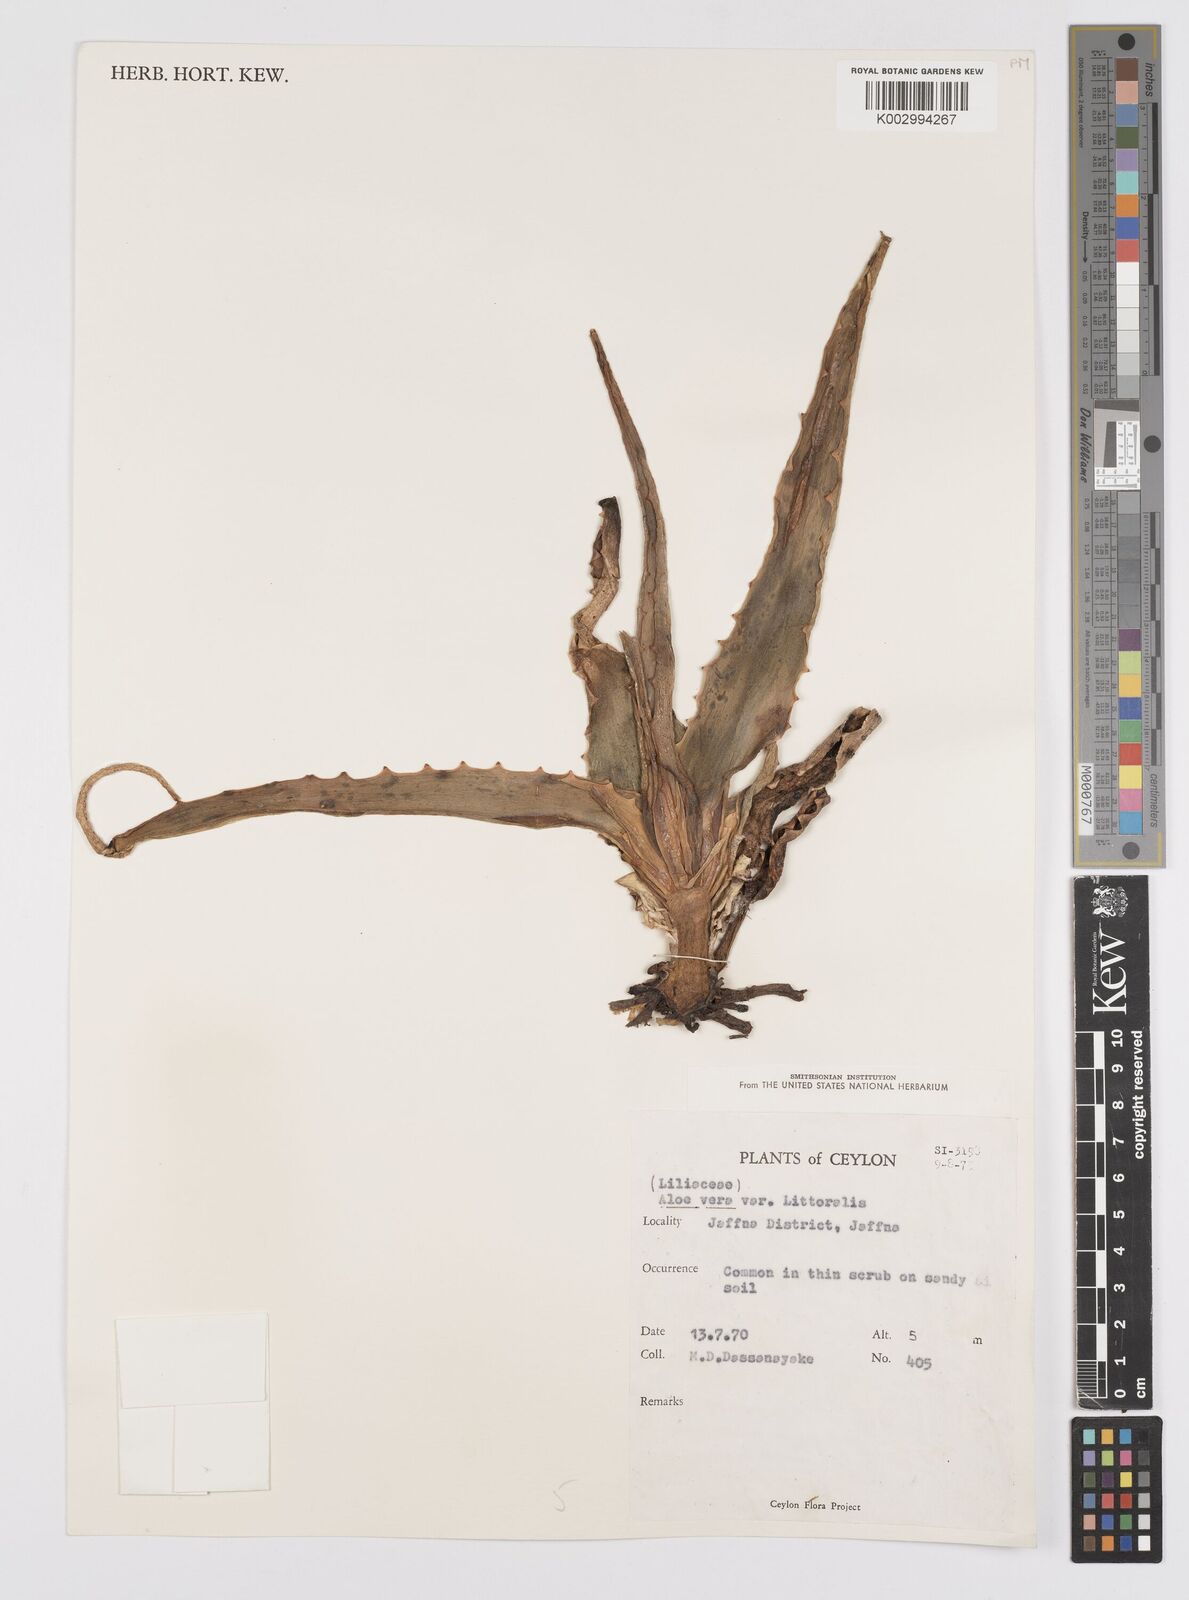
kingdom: Plantae
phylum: Tracheophyta
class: Liliopsida
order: Asparagales
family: Asphodelaceae
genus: Aloe
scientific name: Aloe vera
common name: Barbados aloe
